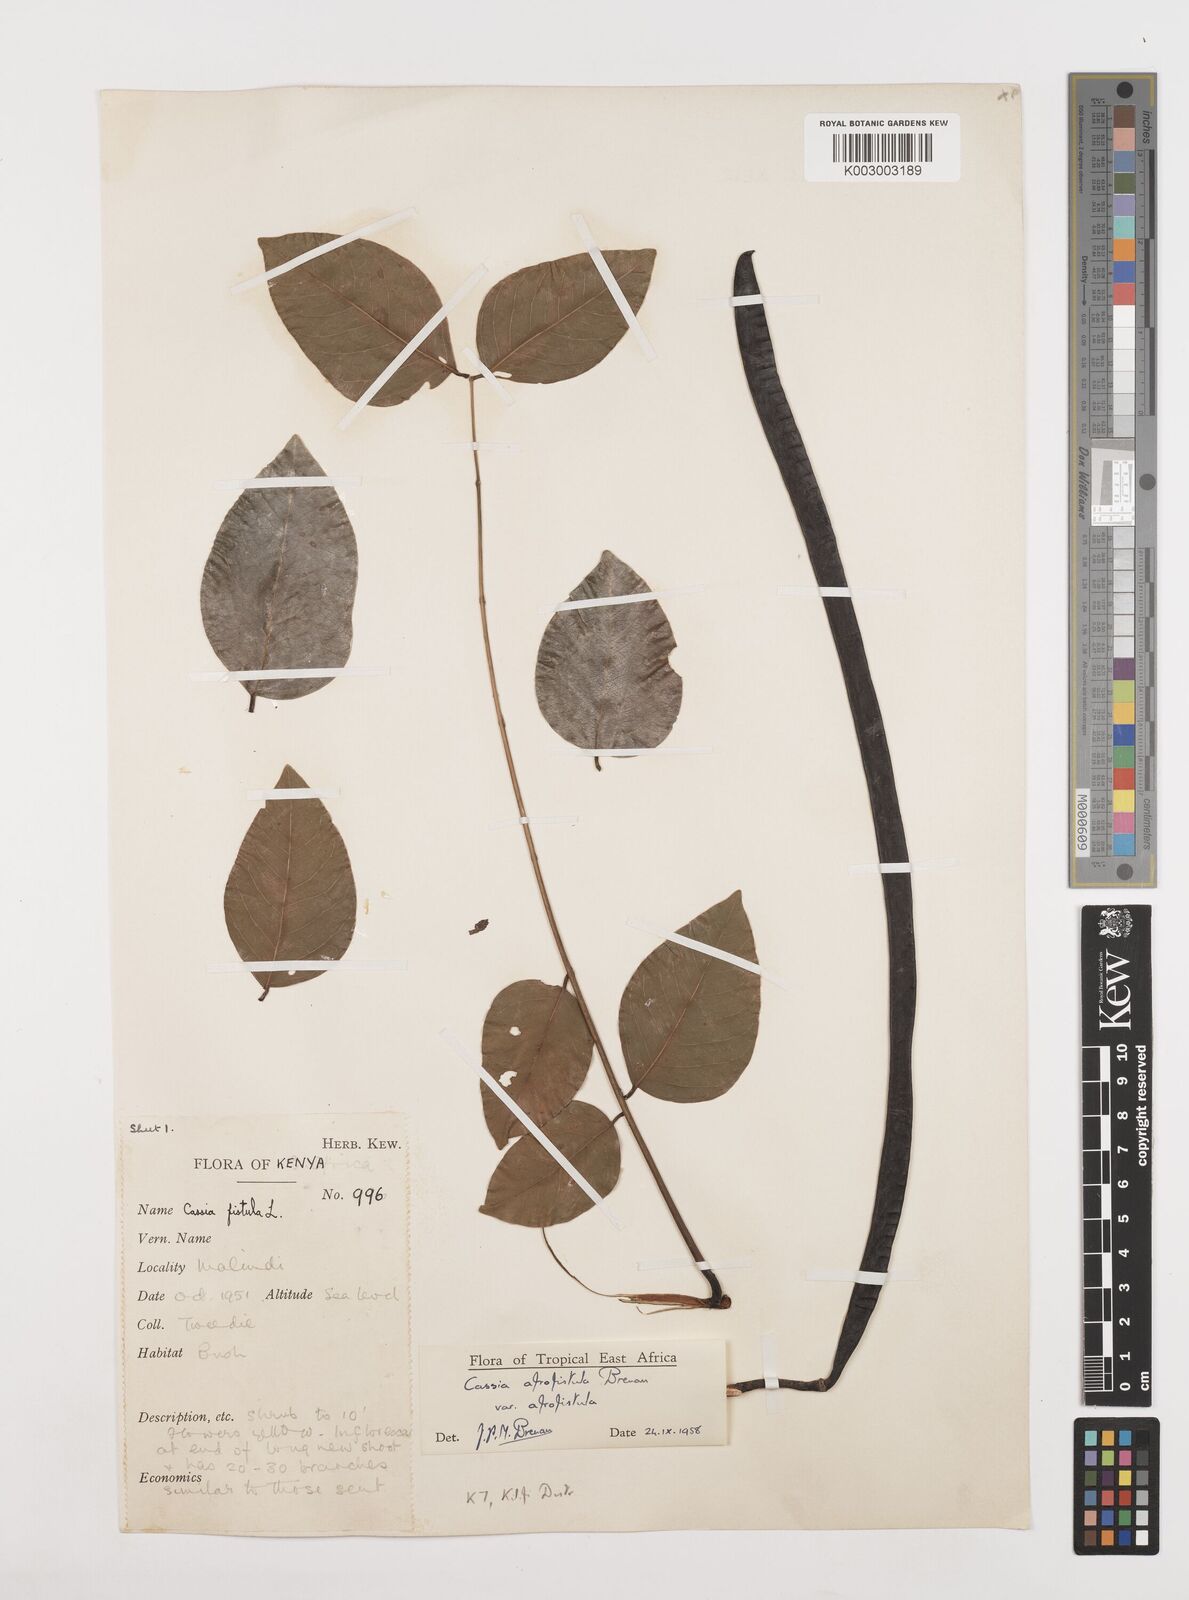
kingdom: Plantae
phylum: Tracheophyta
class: Magnoliopsida
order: Fabales
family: Fabaceae
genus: Cassia
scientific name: Cassia afrofistula
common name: Kenyan shower
